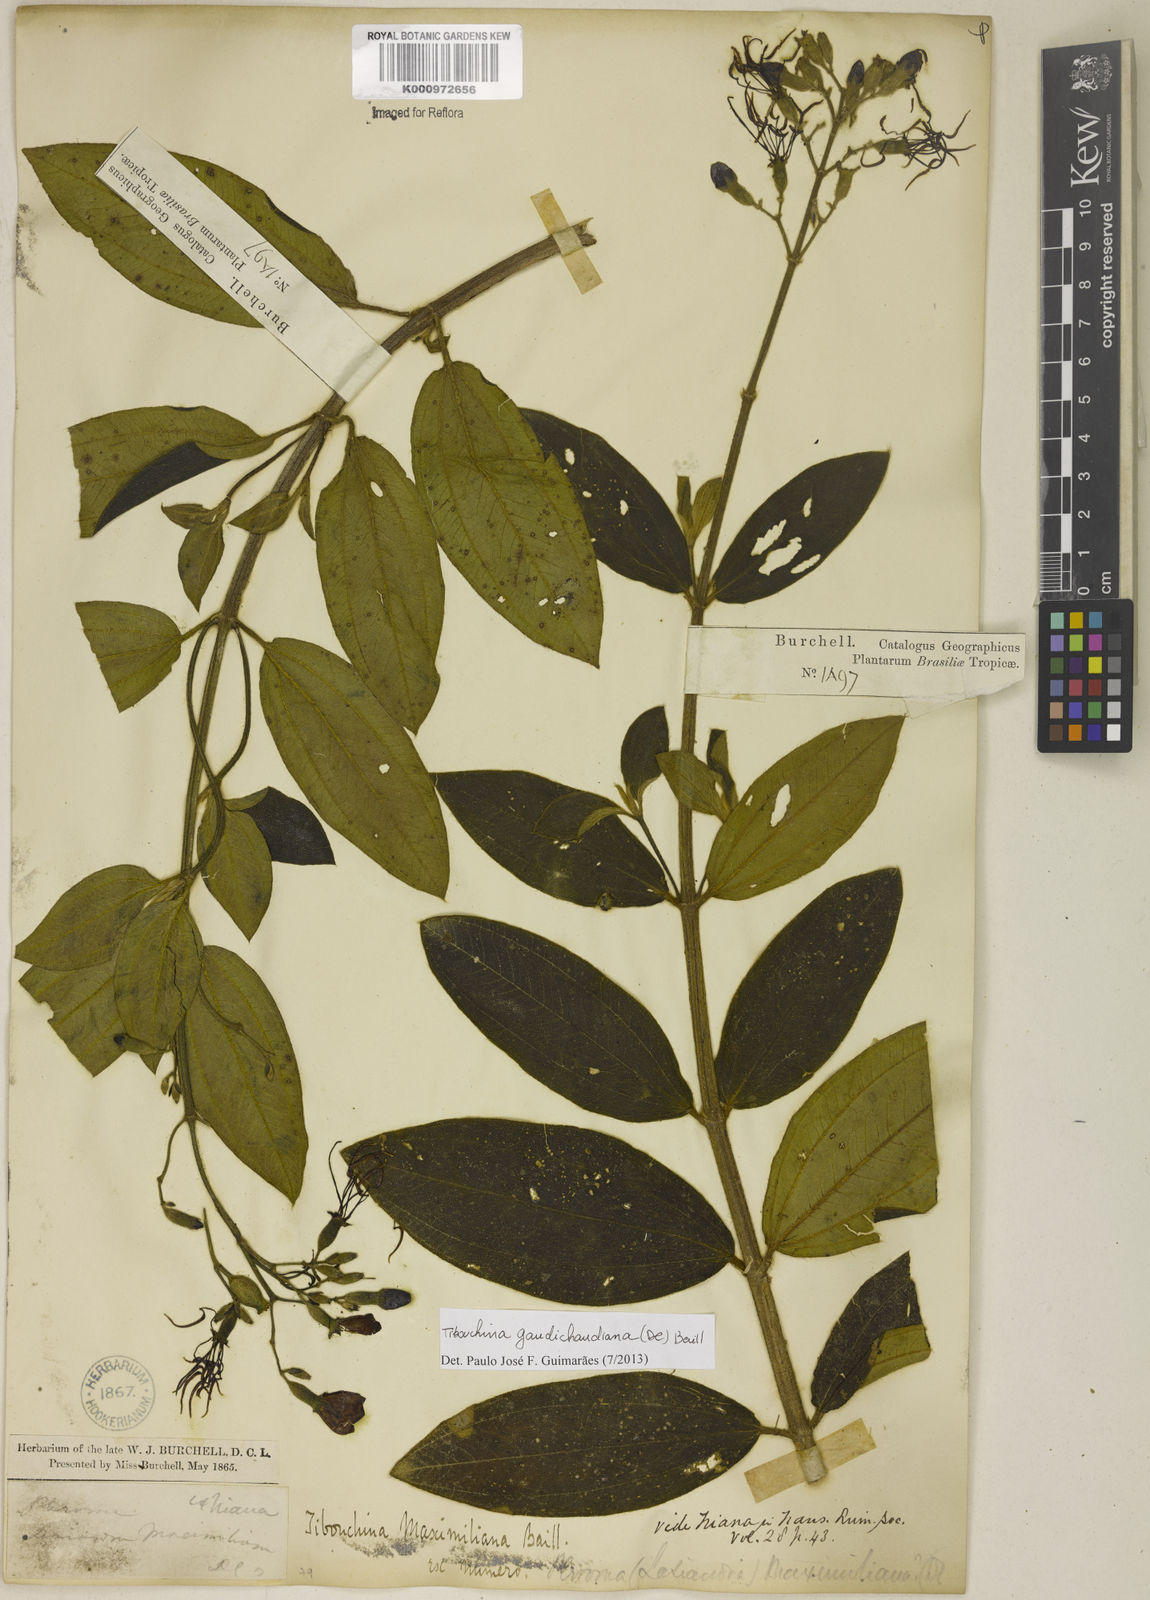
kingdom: Plantae
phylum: Tracheophyta
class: Magnoliopsida
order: Myrtales
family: Melastomataceae
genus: Pleroma
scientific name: Pleroma gaudichaudianum
